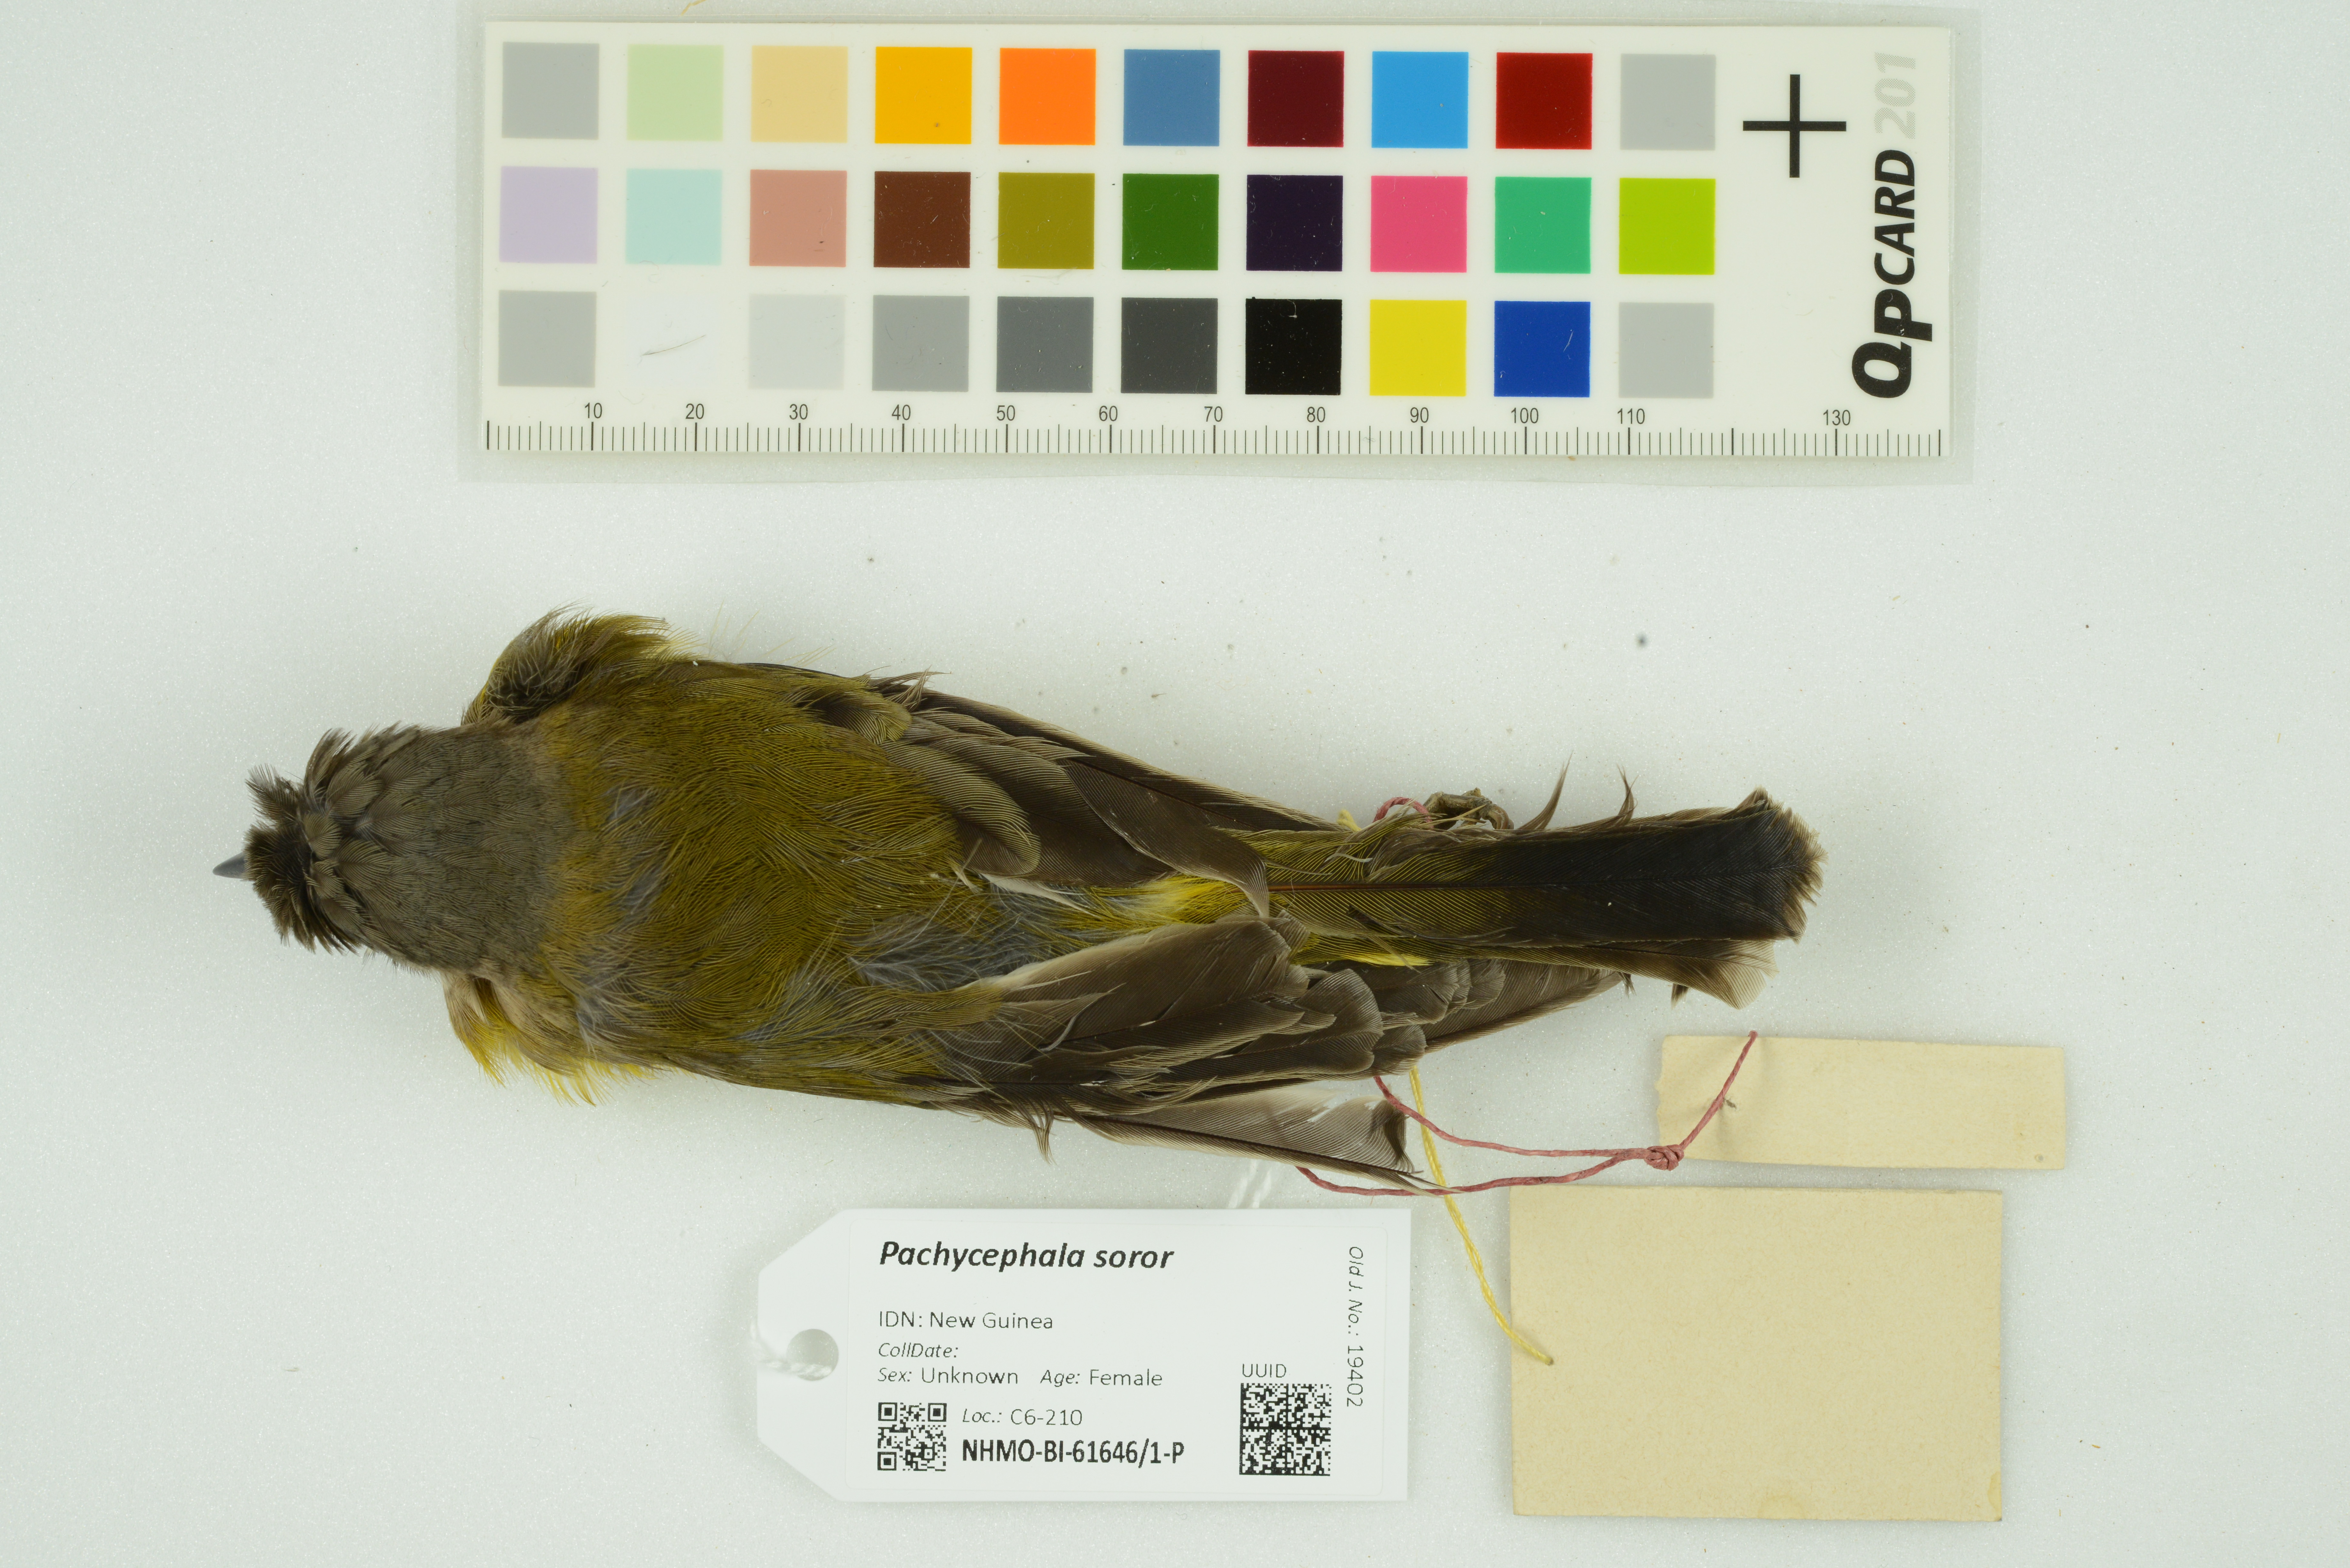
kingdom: Animalia
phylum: Chordata
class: Aves
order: Passeriformes
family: Pachycephalidae
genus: Pachycephala
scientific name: Pachycephala soror
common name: Sclater's whistler
